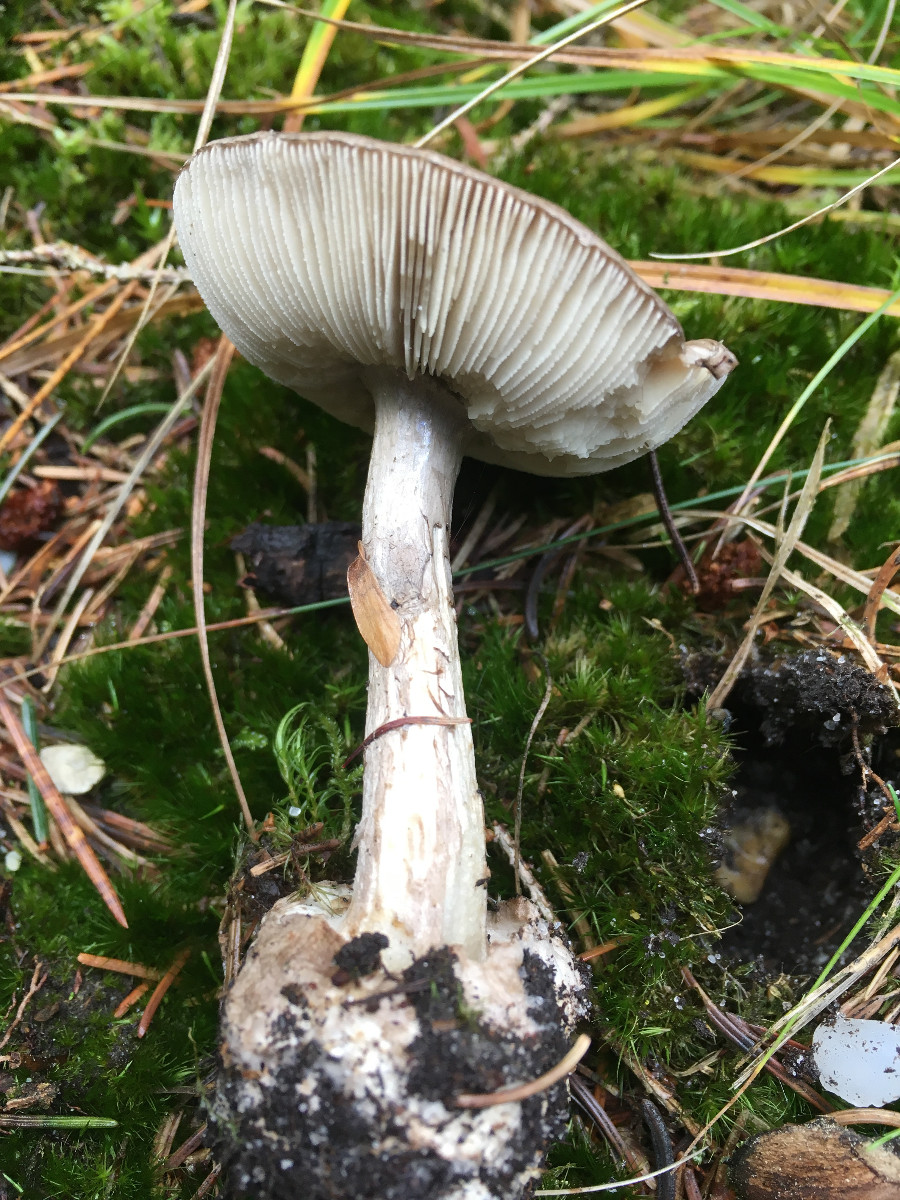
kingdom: Fungi
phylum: Basidiomycota
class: Agaricomycetes
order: Agaricales
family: Amanitaceae
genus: Amanita
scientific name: Amanita porphyria
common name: porfyr-fluesvamp
